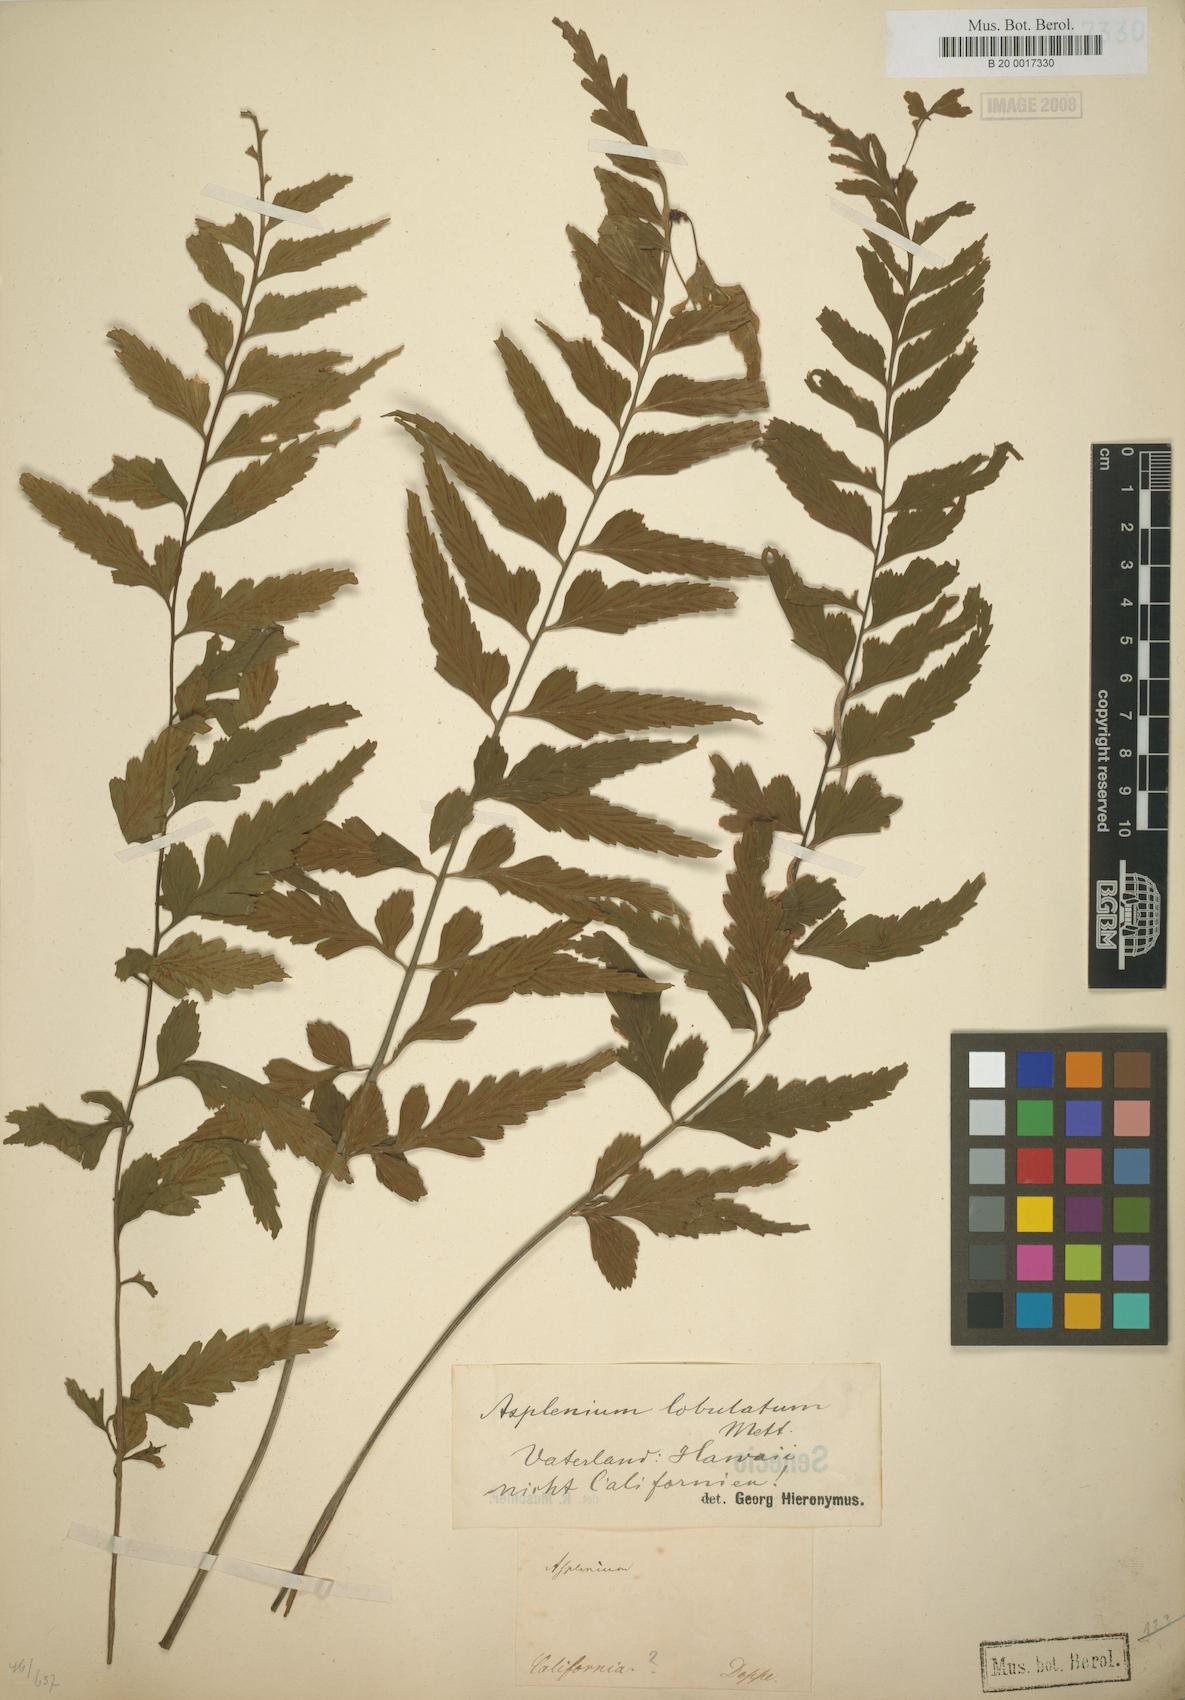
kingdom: Plantae
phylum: Tracheophyta
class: Polypodiopsida
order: Polypodiales
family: Aspleniaceae
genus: Asplenium
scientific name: Asplenium lobulatum
